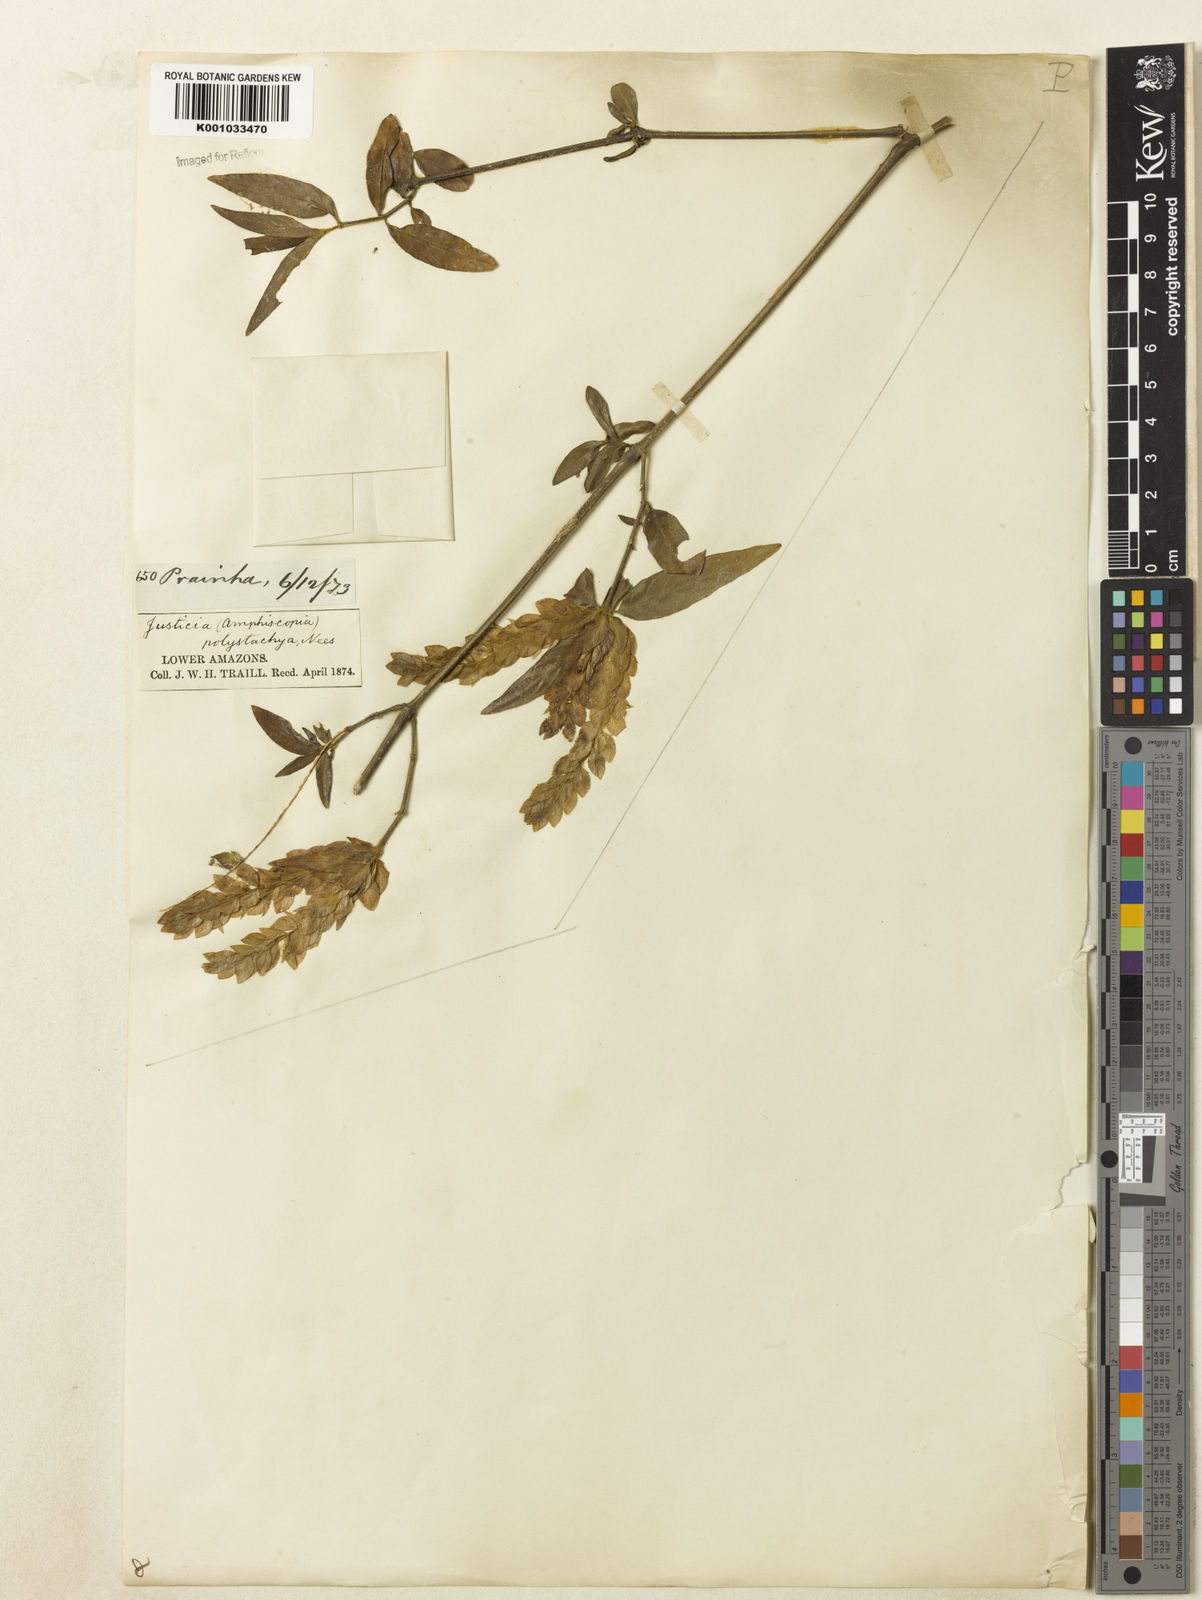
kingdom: Plantae
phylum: Tracheophyta
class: Magnoliopsida
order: Lamiales
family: Acanthaceae
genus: Justicia
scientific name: Justicia polystachya
